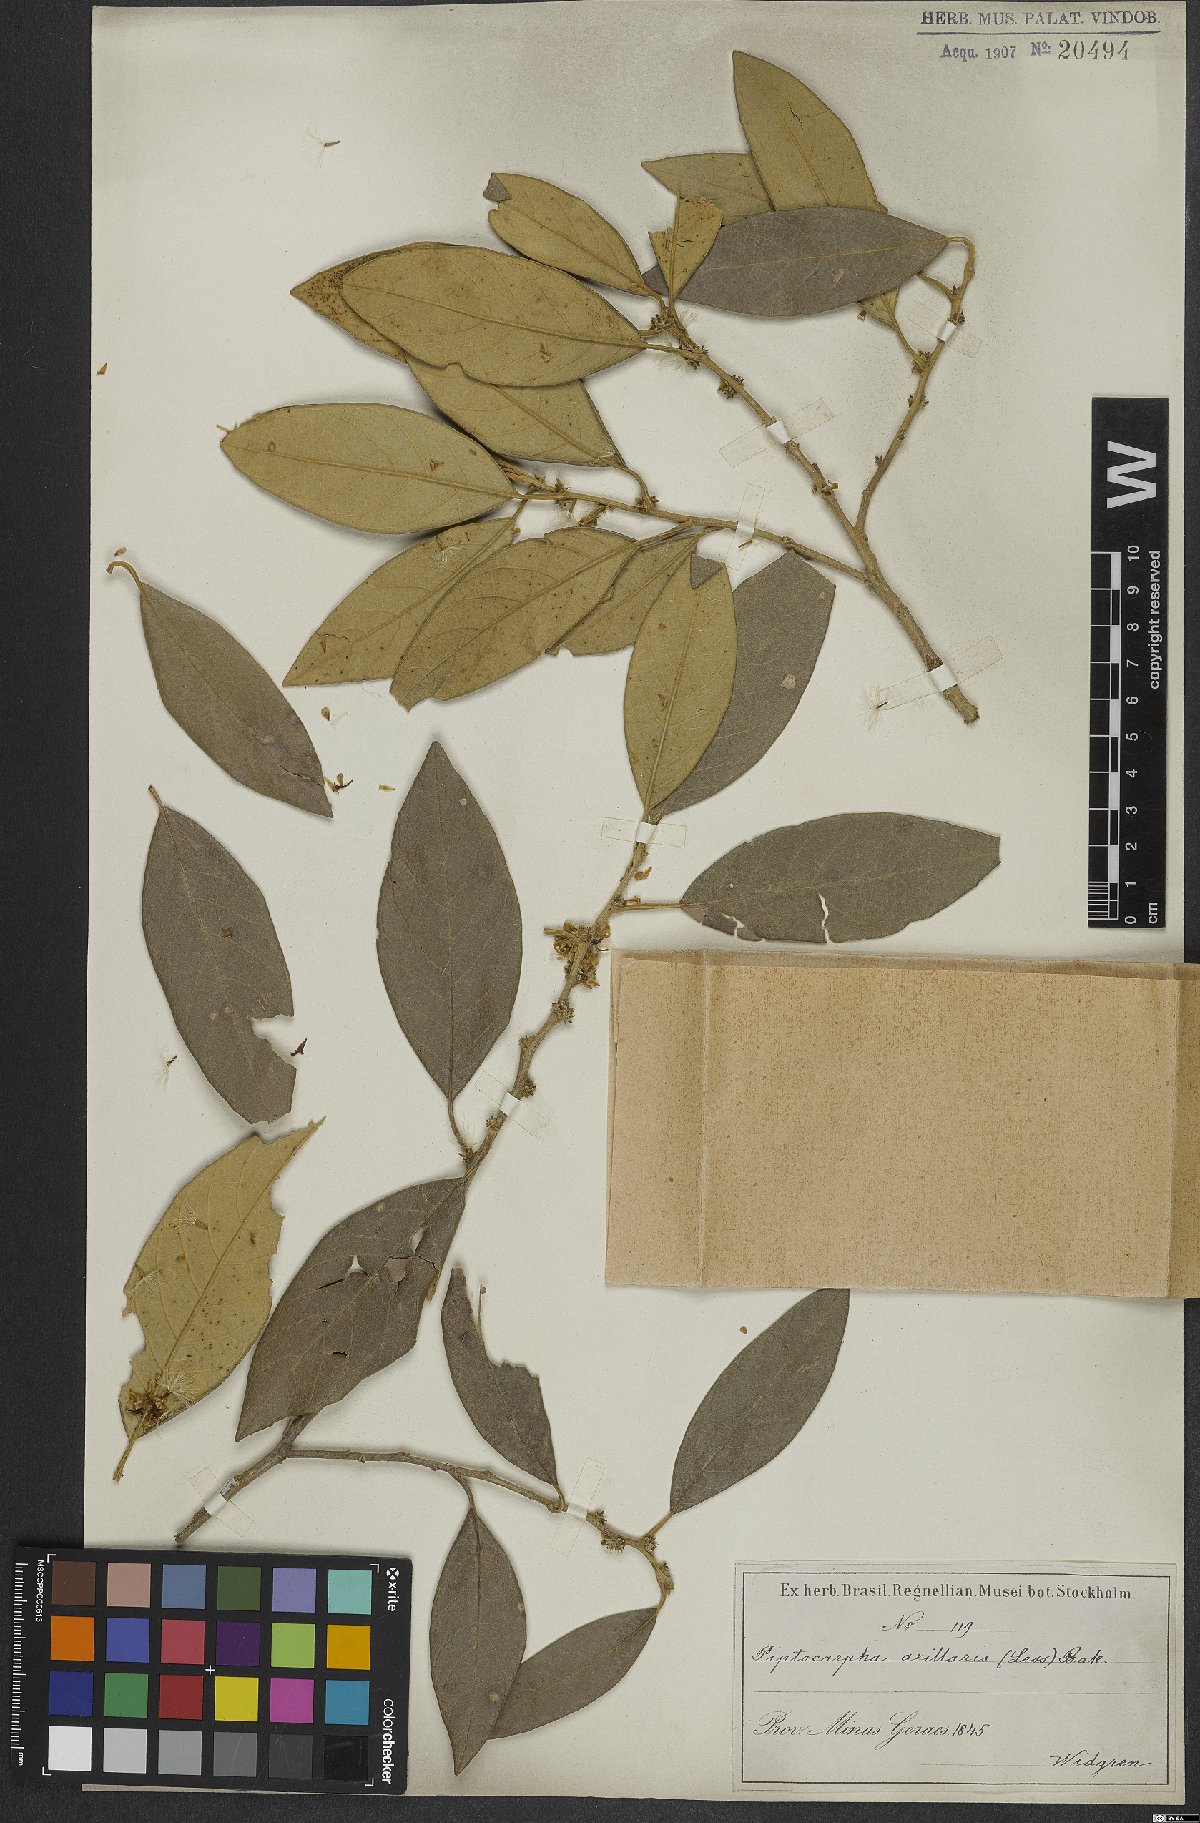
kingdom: Plantae
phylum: Tracheophyta
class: Magnoliopsida
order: Asterales
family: Asteraceae
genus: Piptocarpha
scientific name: Piptocarpha axillaris
